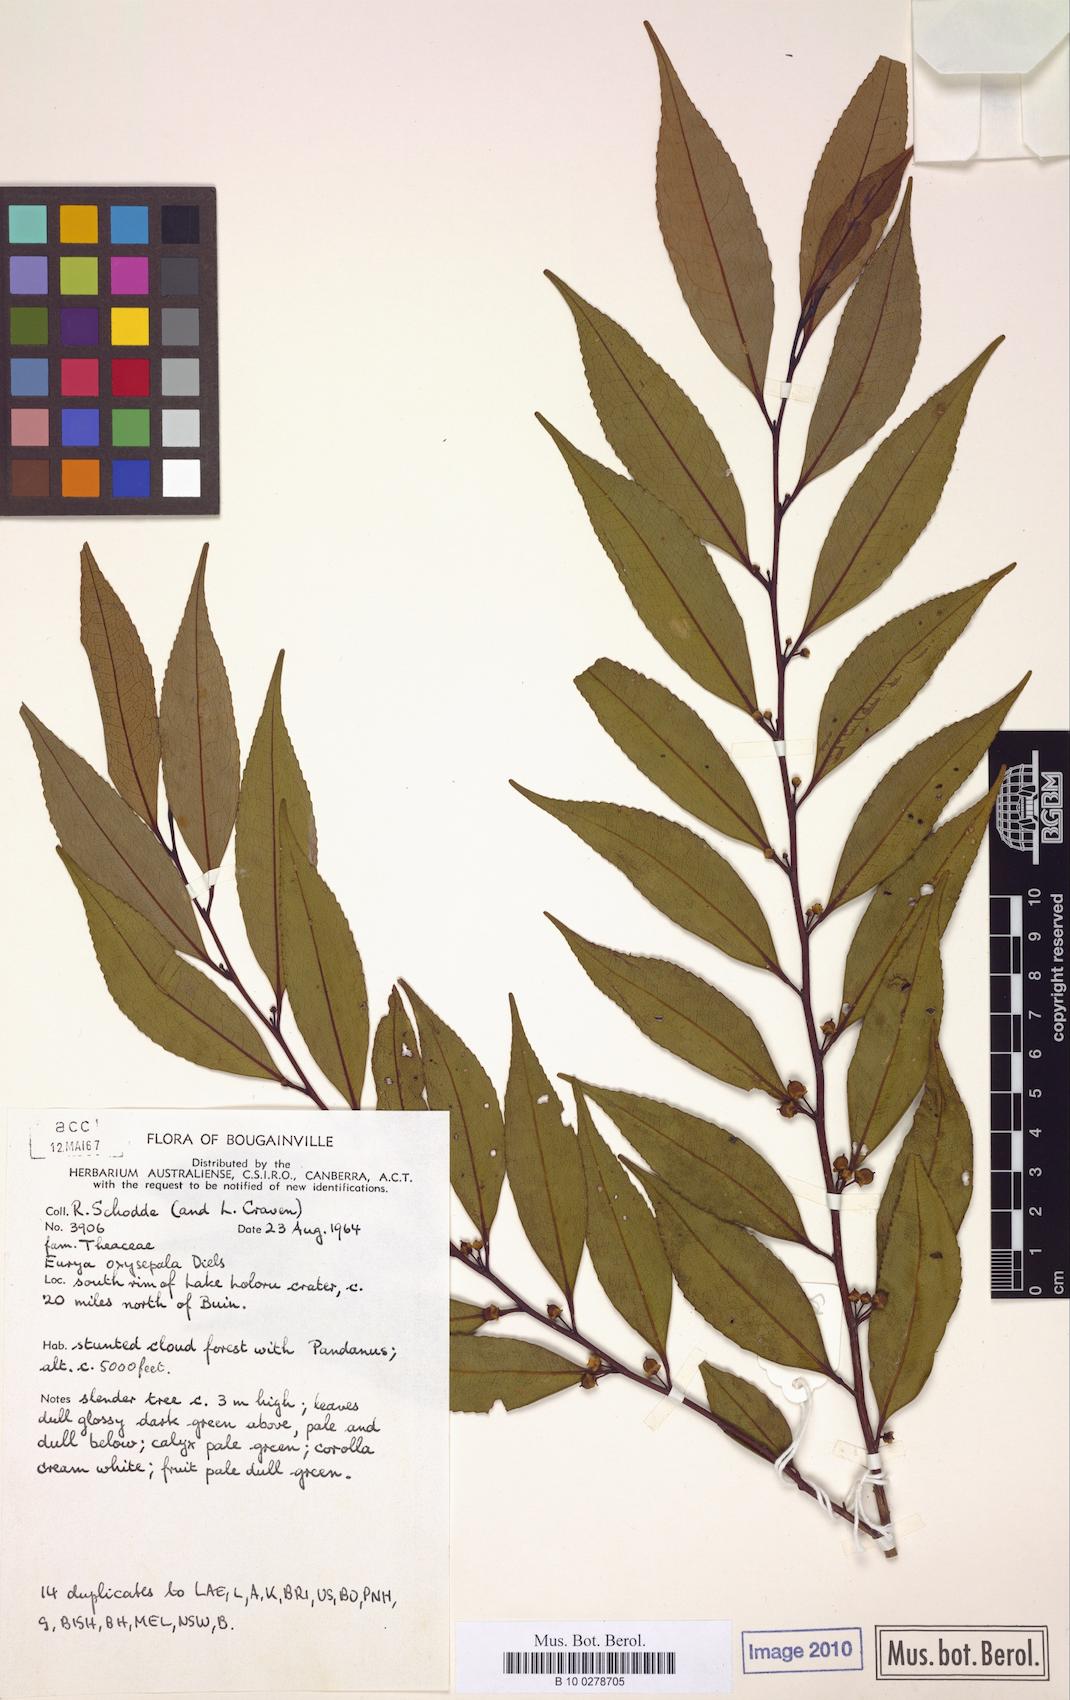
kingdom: Plantae
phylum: Tracheophyta
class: Magnoliopsida
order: Ericales
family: Pentaphylacaceae
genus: Eurya
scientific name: Eurya oxysepala
